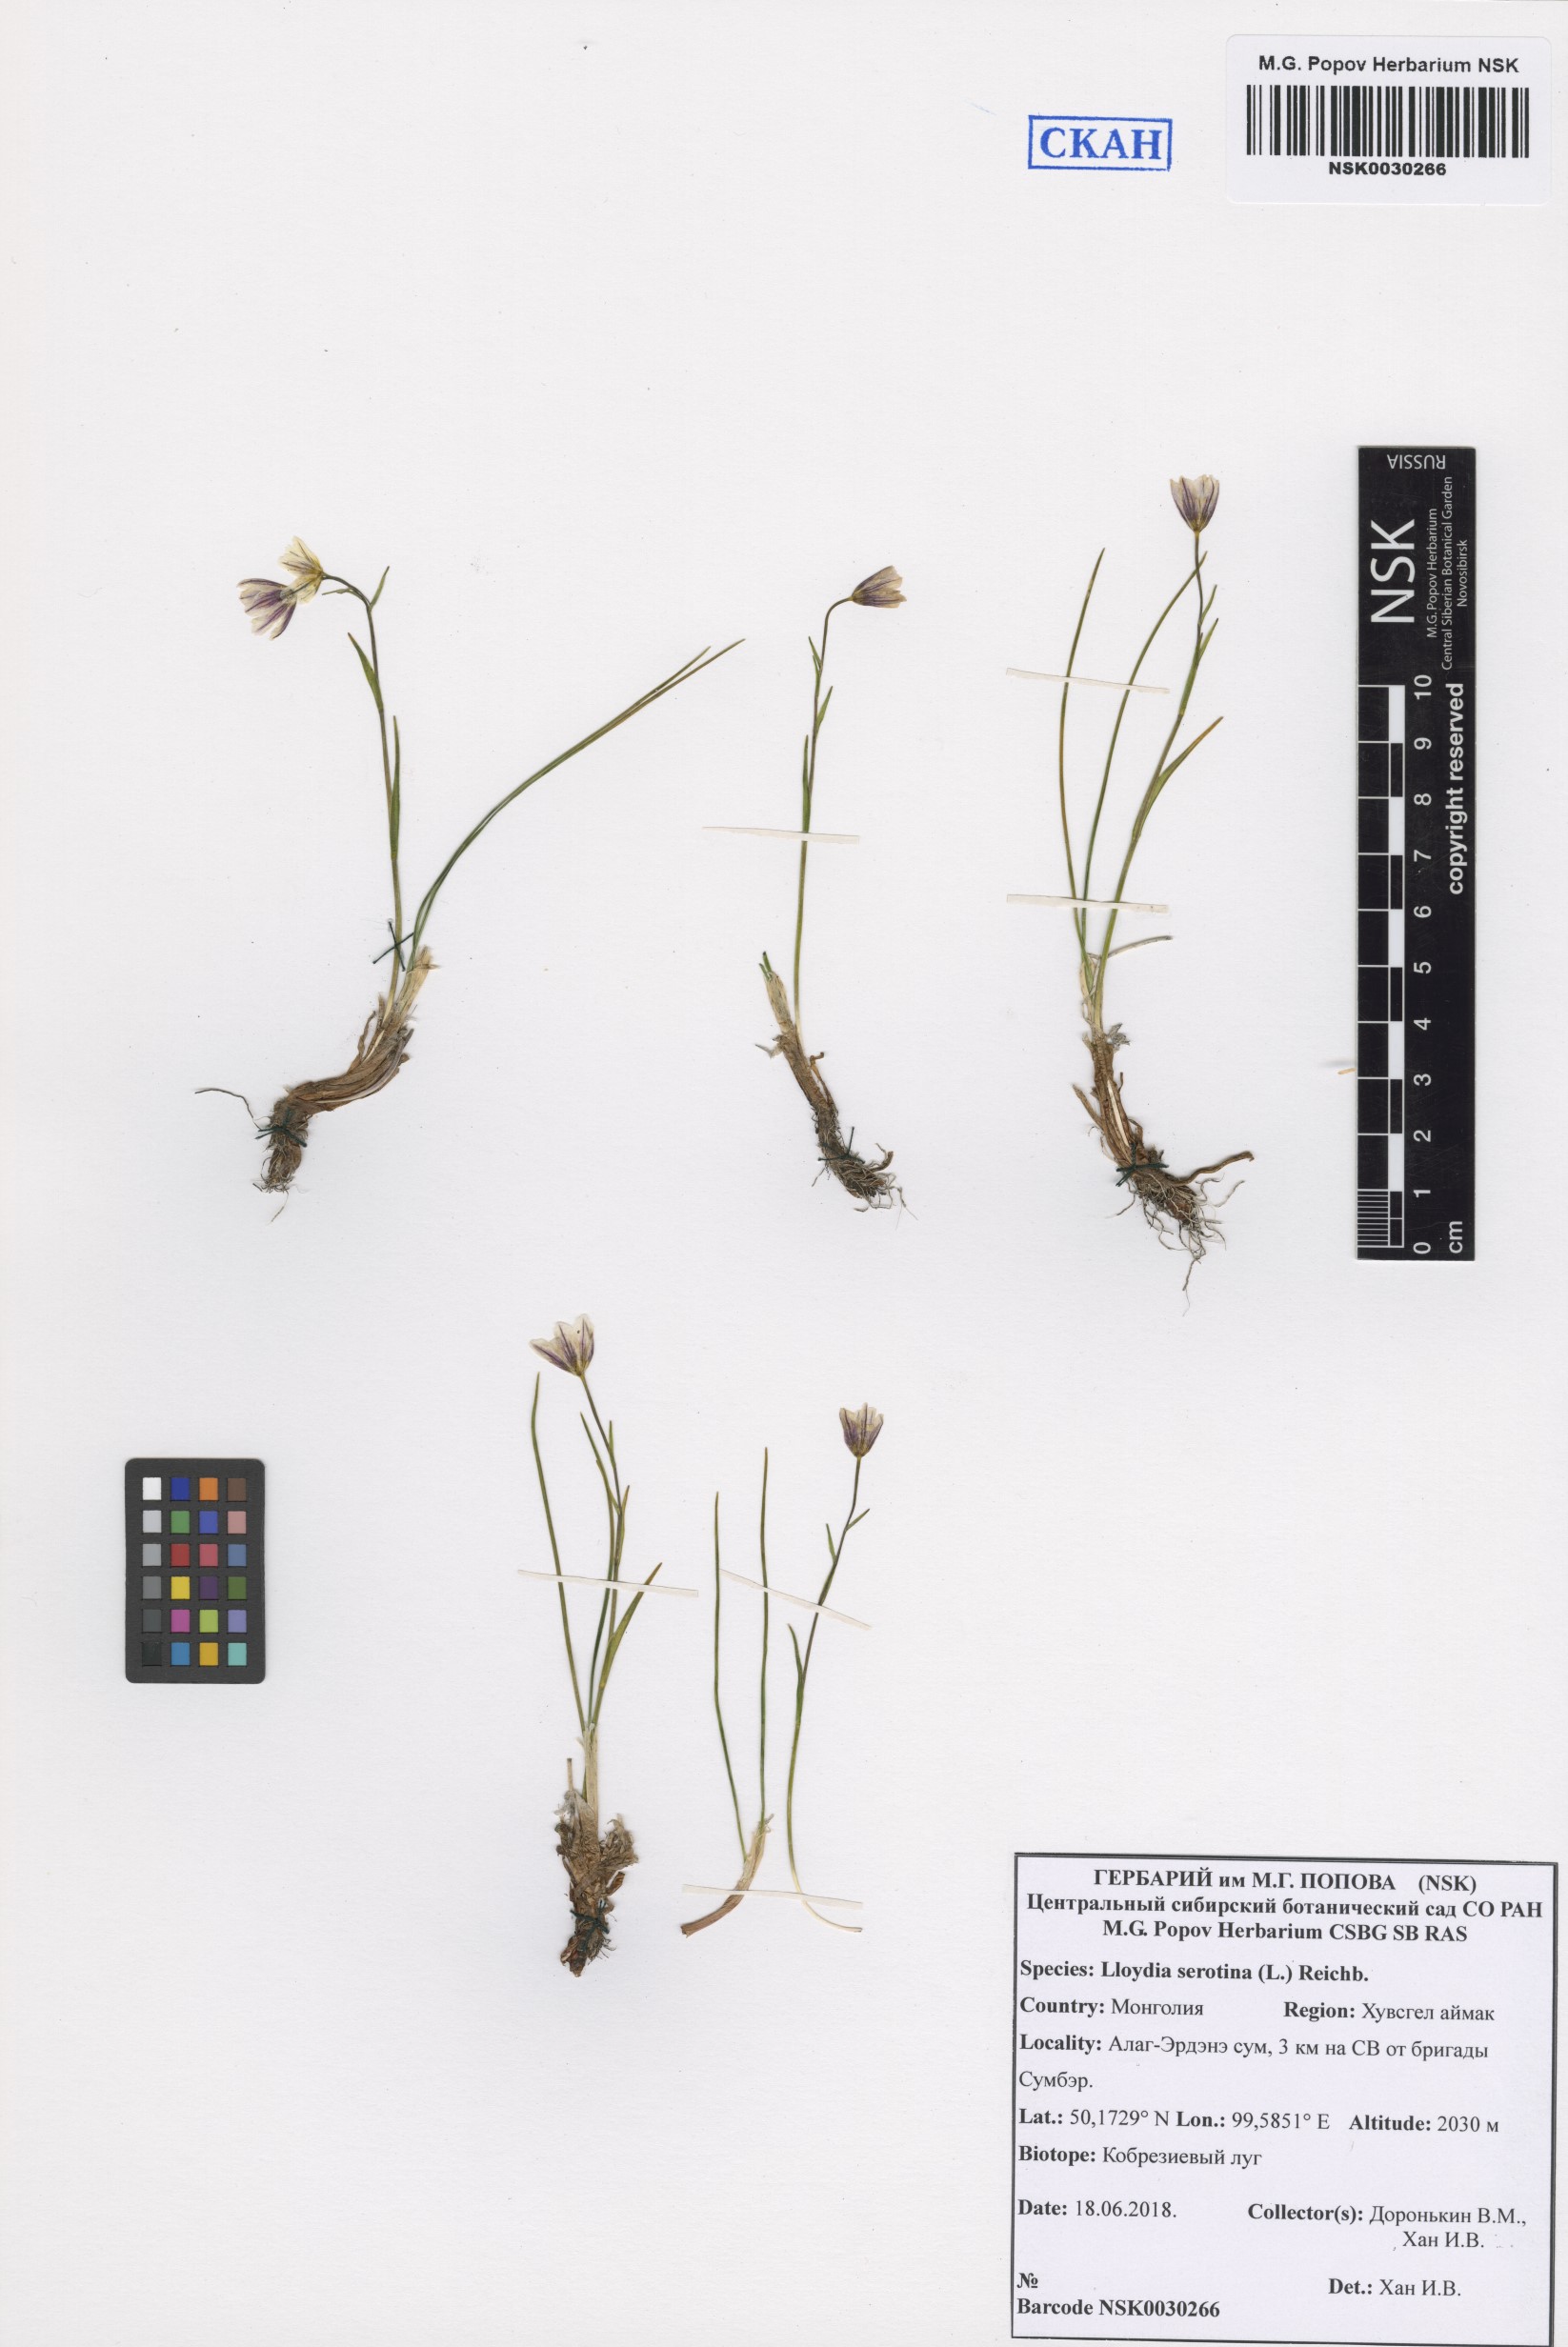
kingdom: Plantae
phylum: Tracheophyta
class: Liliopsida
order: Liliales
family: Liliaceae
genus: Gagea
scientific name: Gagea serotina
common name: Snowdon lily
